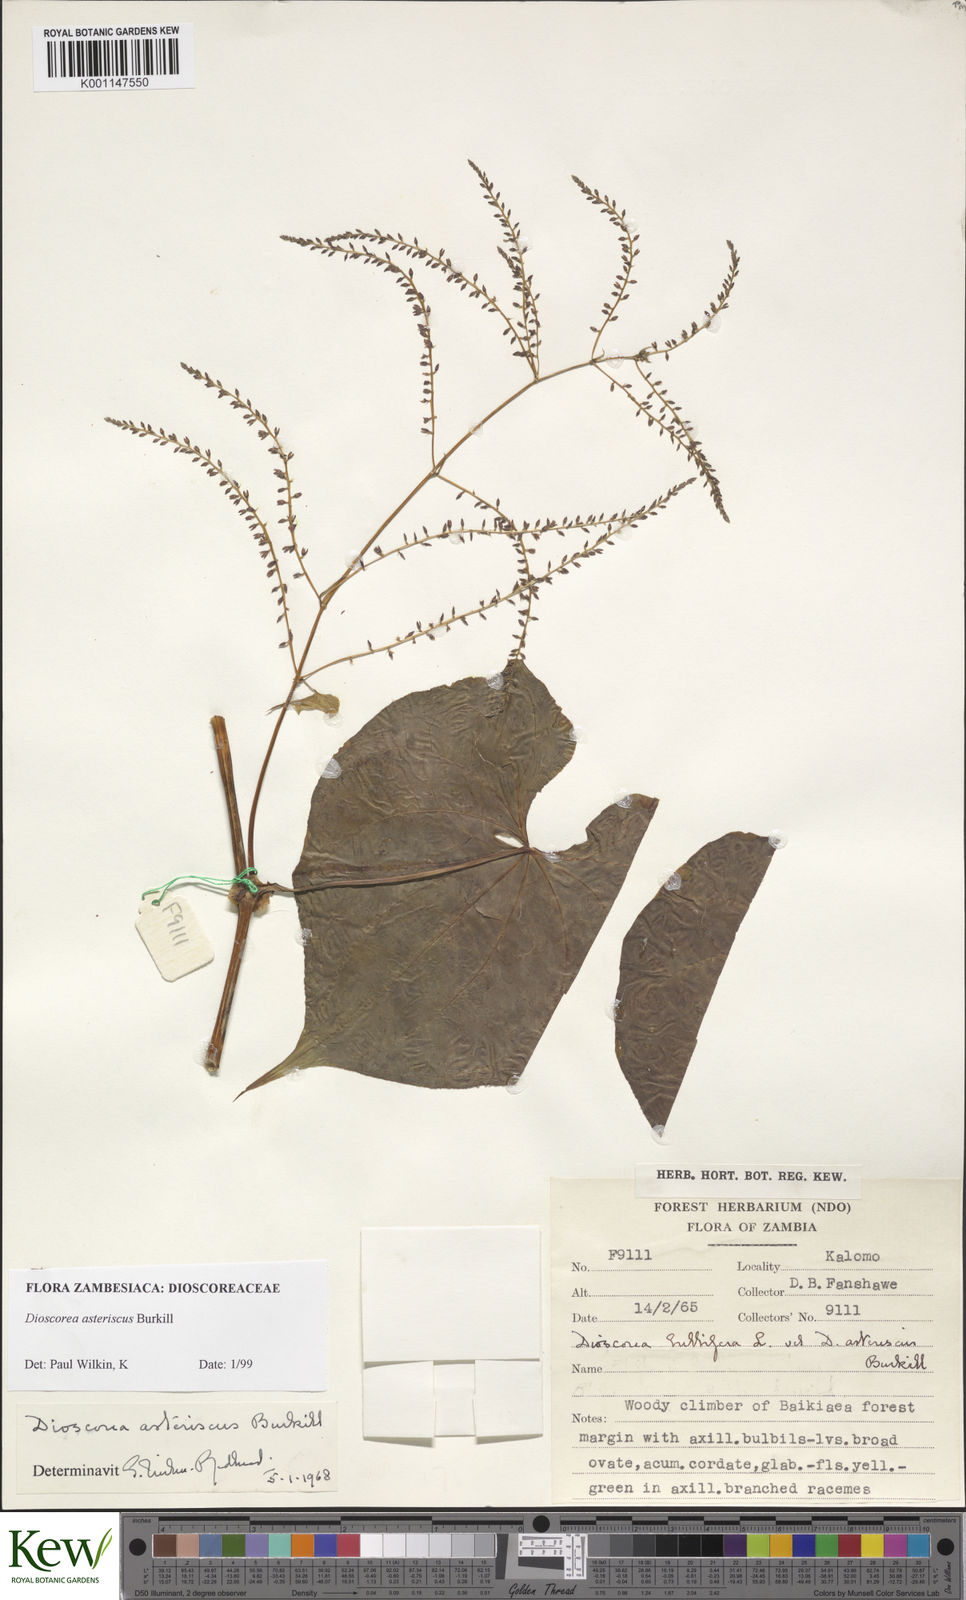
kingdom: Plantae
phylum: Tracheophyta
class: Liliopsida
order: Dioscoreales
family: Dioscoreaceae
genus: Dioscorea
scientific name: Dioscorea asteriscus
